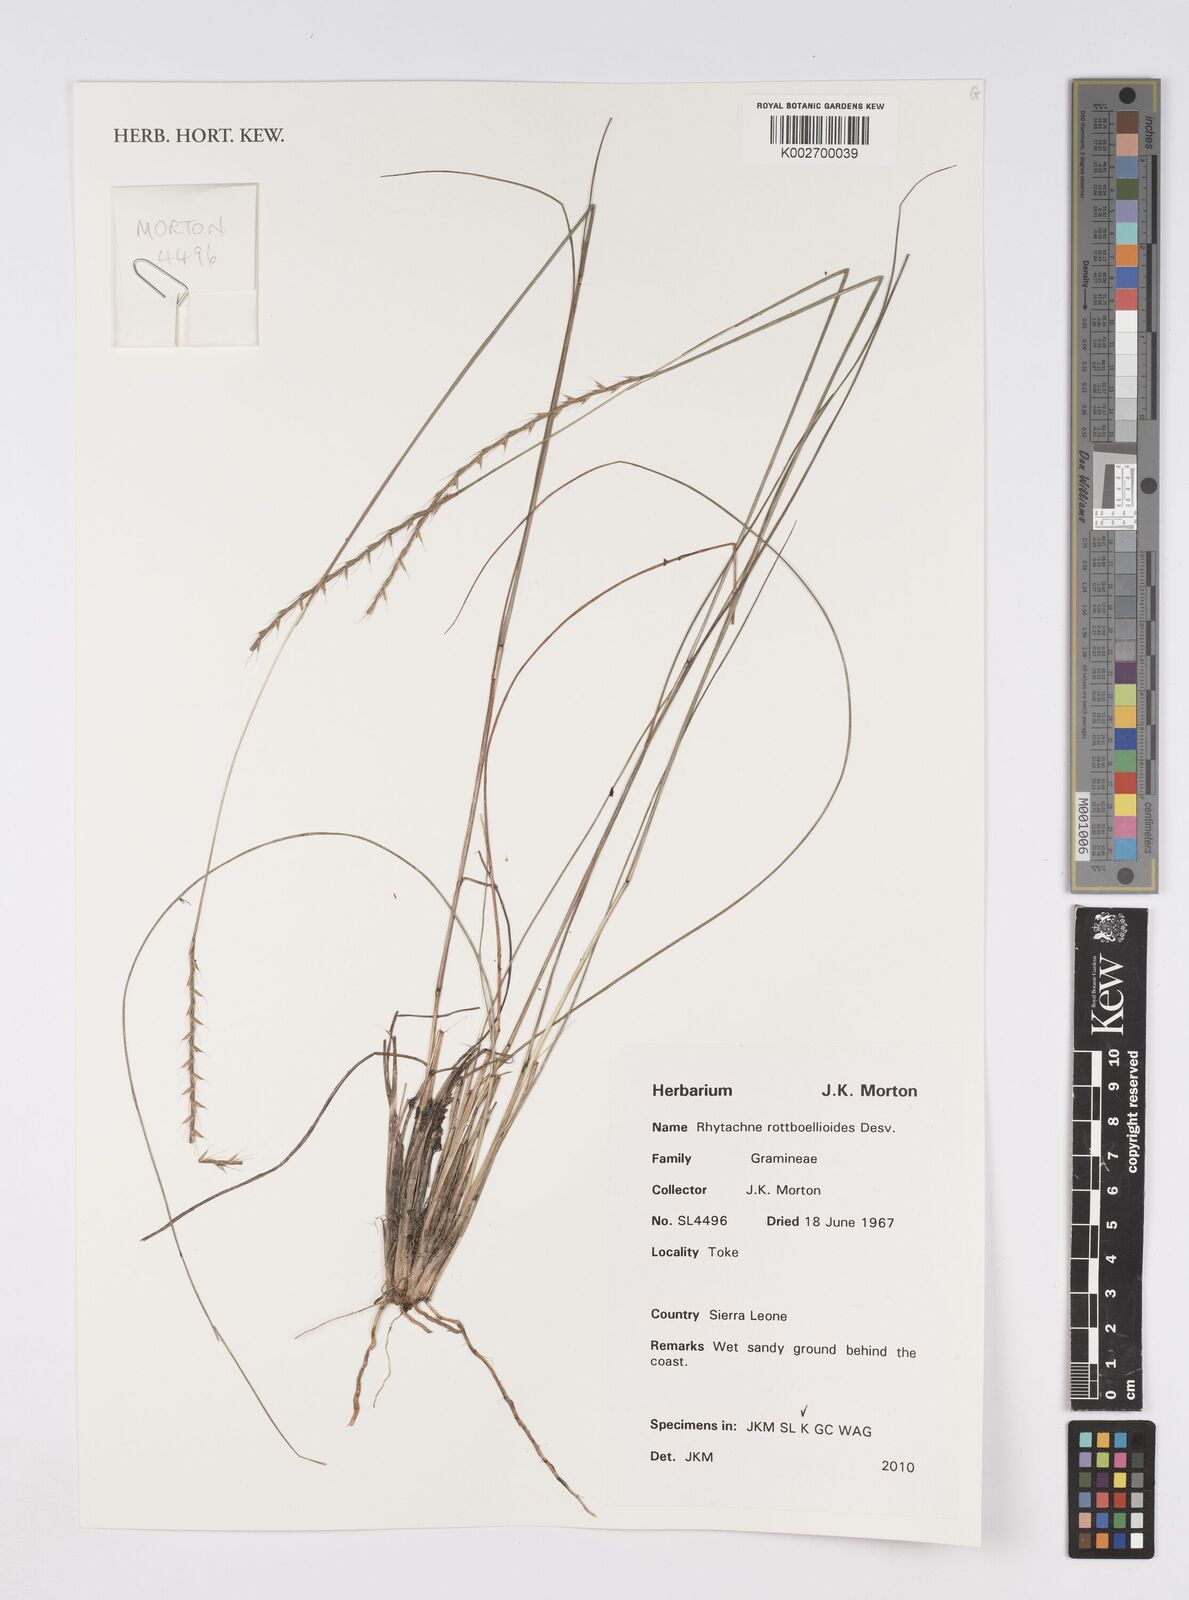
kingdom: Plantae
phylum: Tracheophyta
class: Liliopsida
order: Poales
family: Poaceae
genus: Rhytachne
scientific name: Rhytachne rottboellioides
